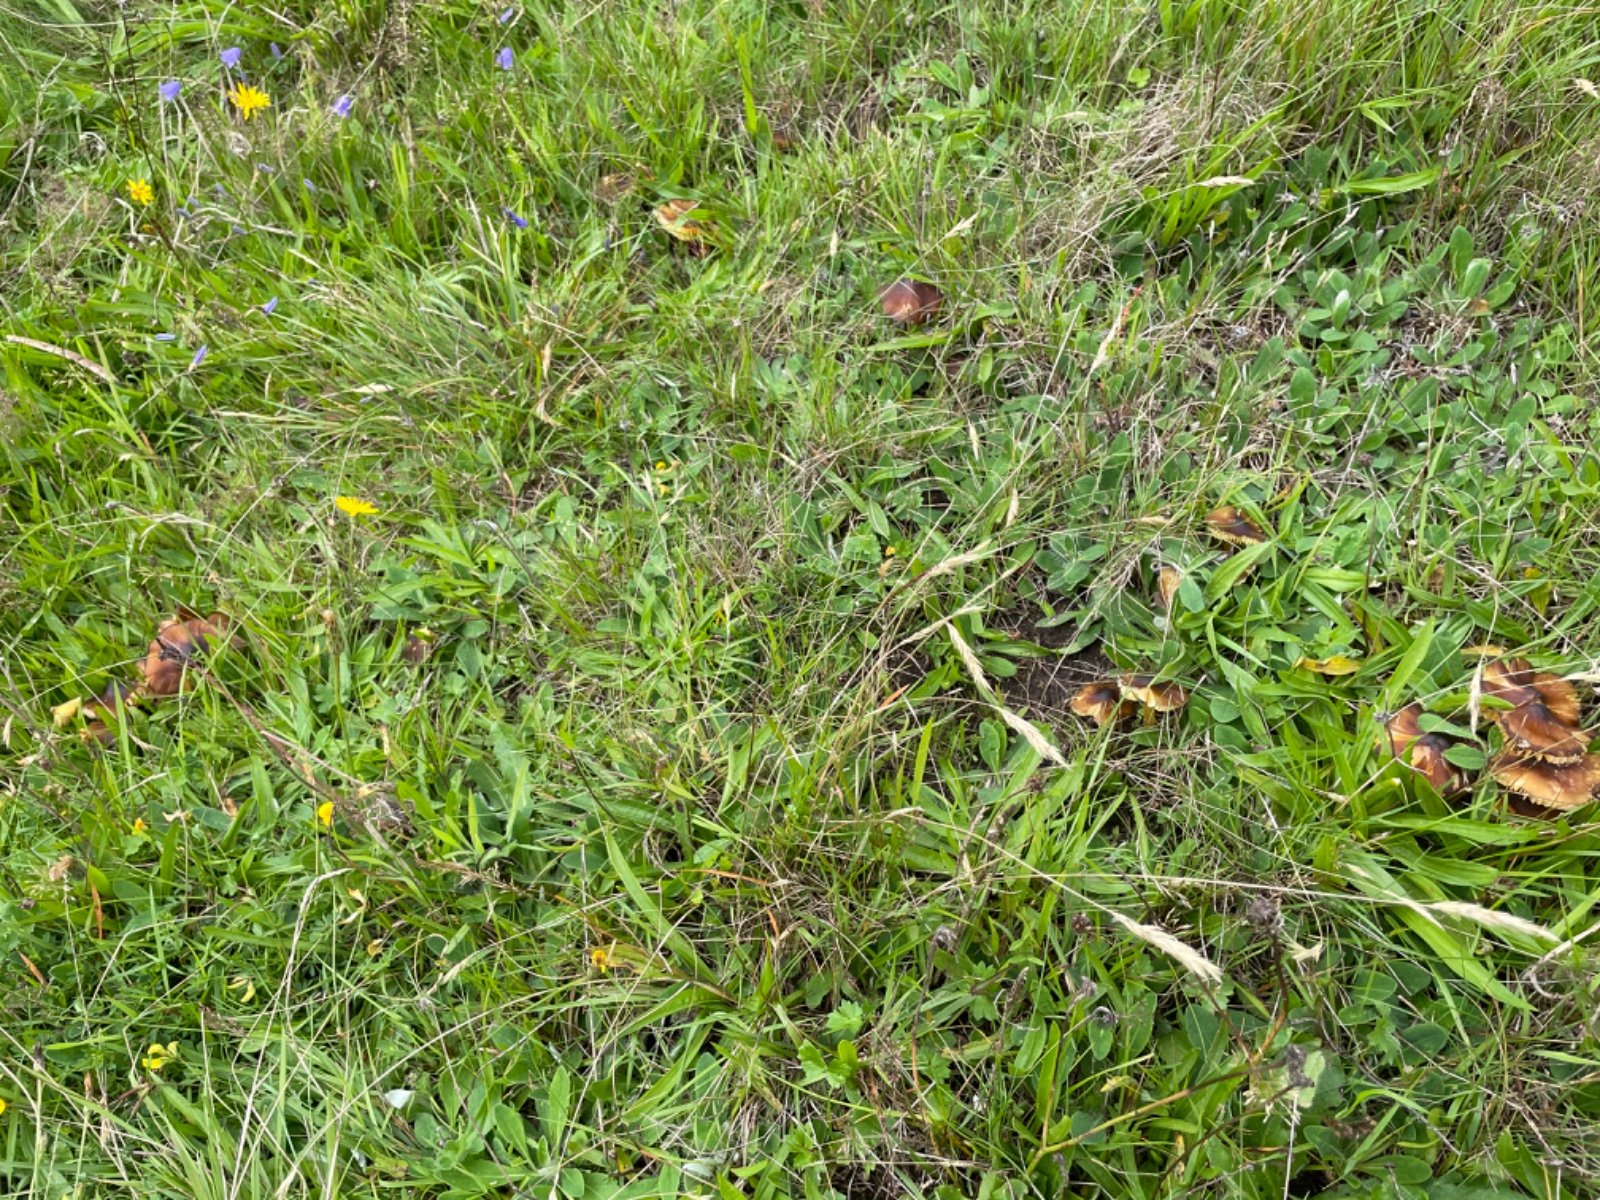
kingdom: Fungi
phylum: Basidiomycota
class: Agaricomycetes
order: Agaricales
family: Hygrophoraceae
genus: Hygrocybe
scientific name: Hygrocybe spadicea
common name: daddelbrun vokshat
